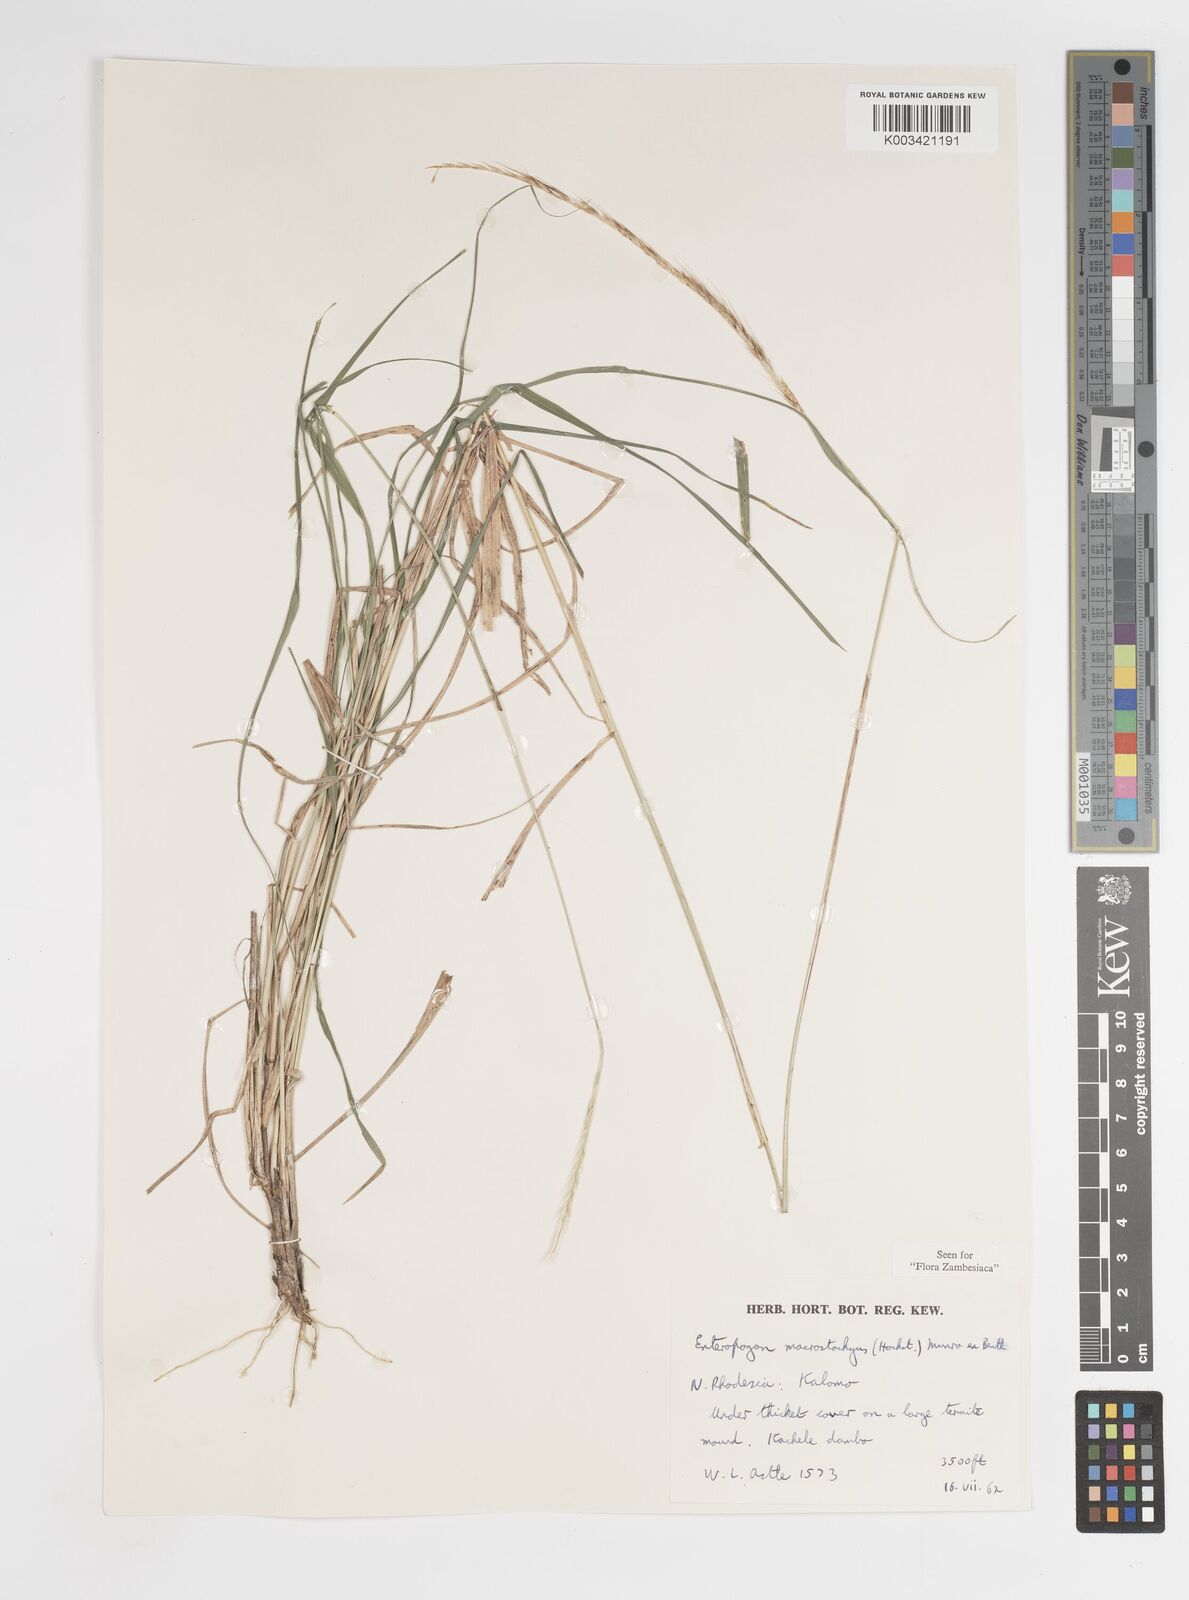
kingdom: Plantae
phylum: Tracheophyta
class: Liliopsida
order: Poales
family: Poaceae
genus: Enteropogon
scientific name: Enteropogon macrostachyus
